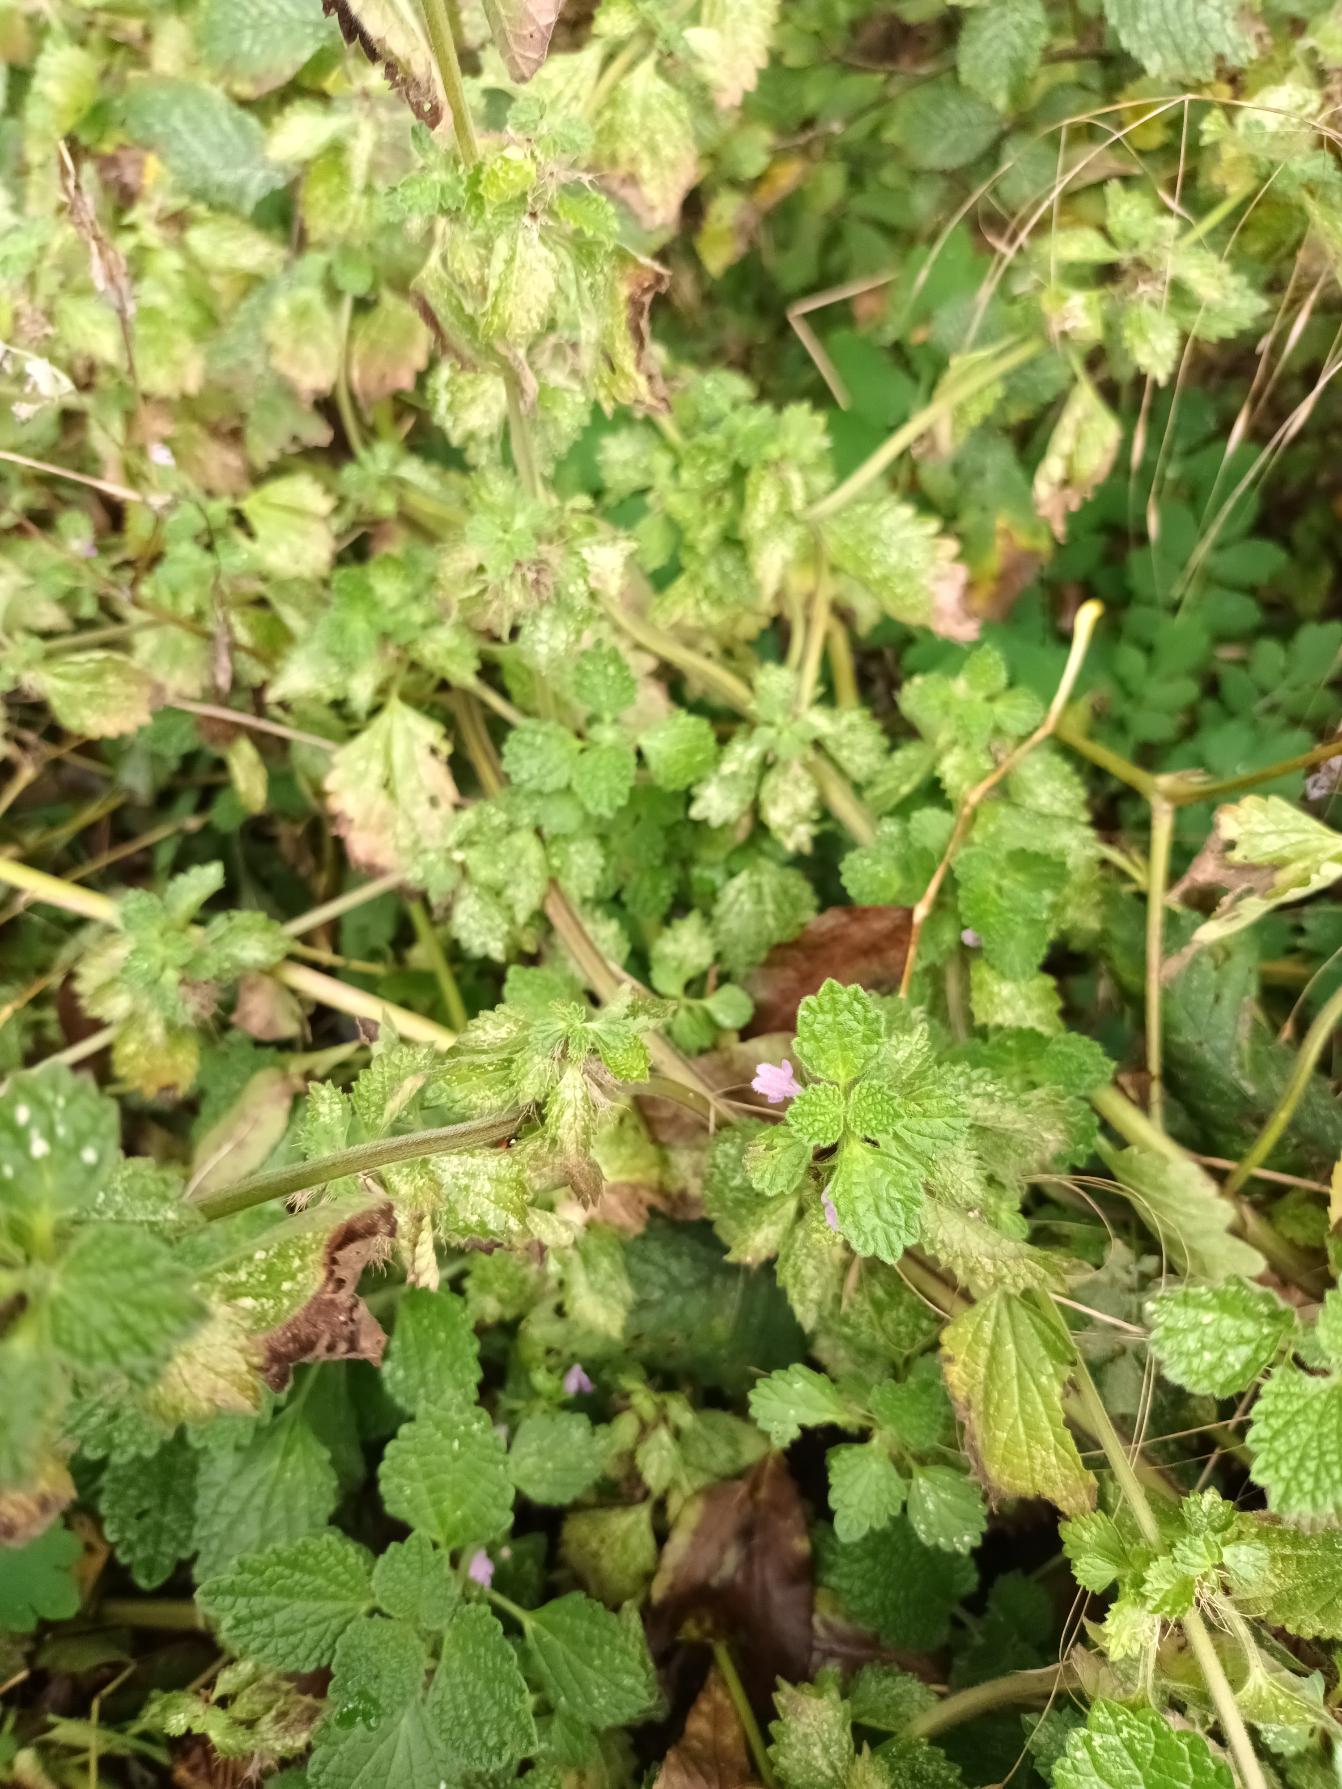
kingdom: Plantae
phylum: Tracheophyta
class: Magnoliopsida
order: Lamiales
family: Lamiaceae
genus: Ballota
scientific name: Ballota nigra
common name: Tandbæger
